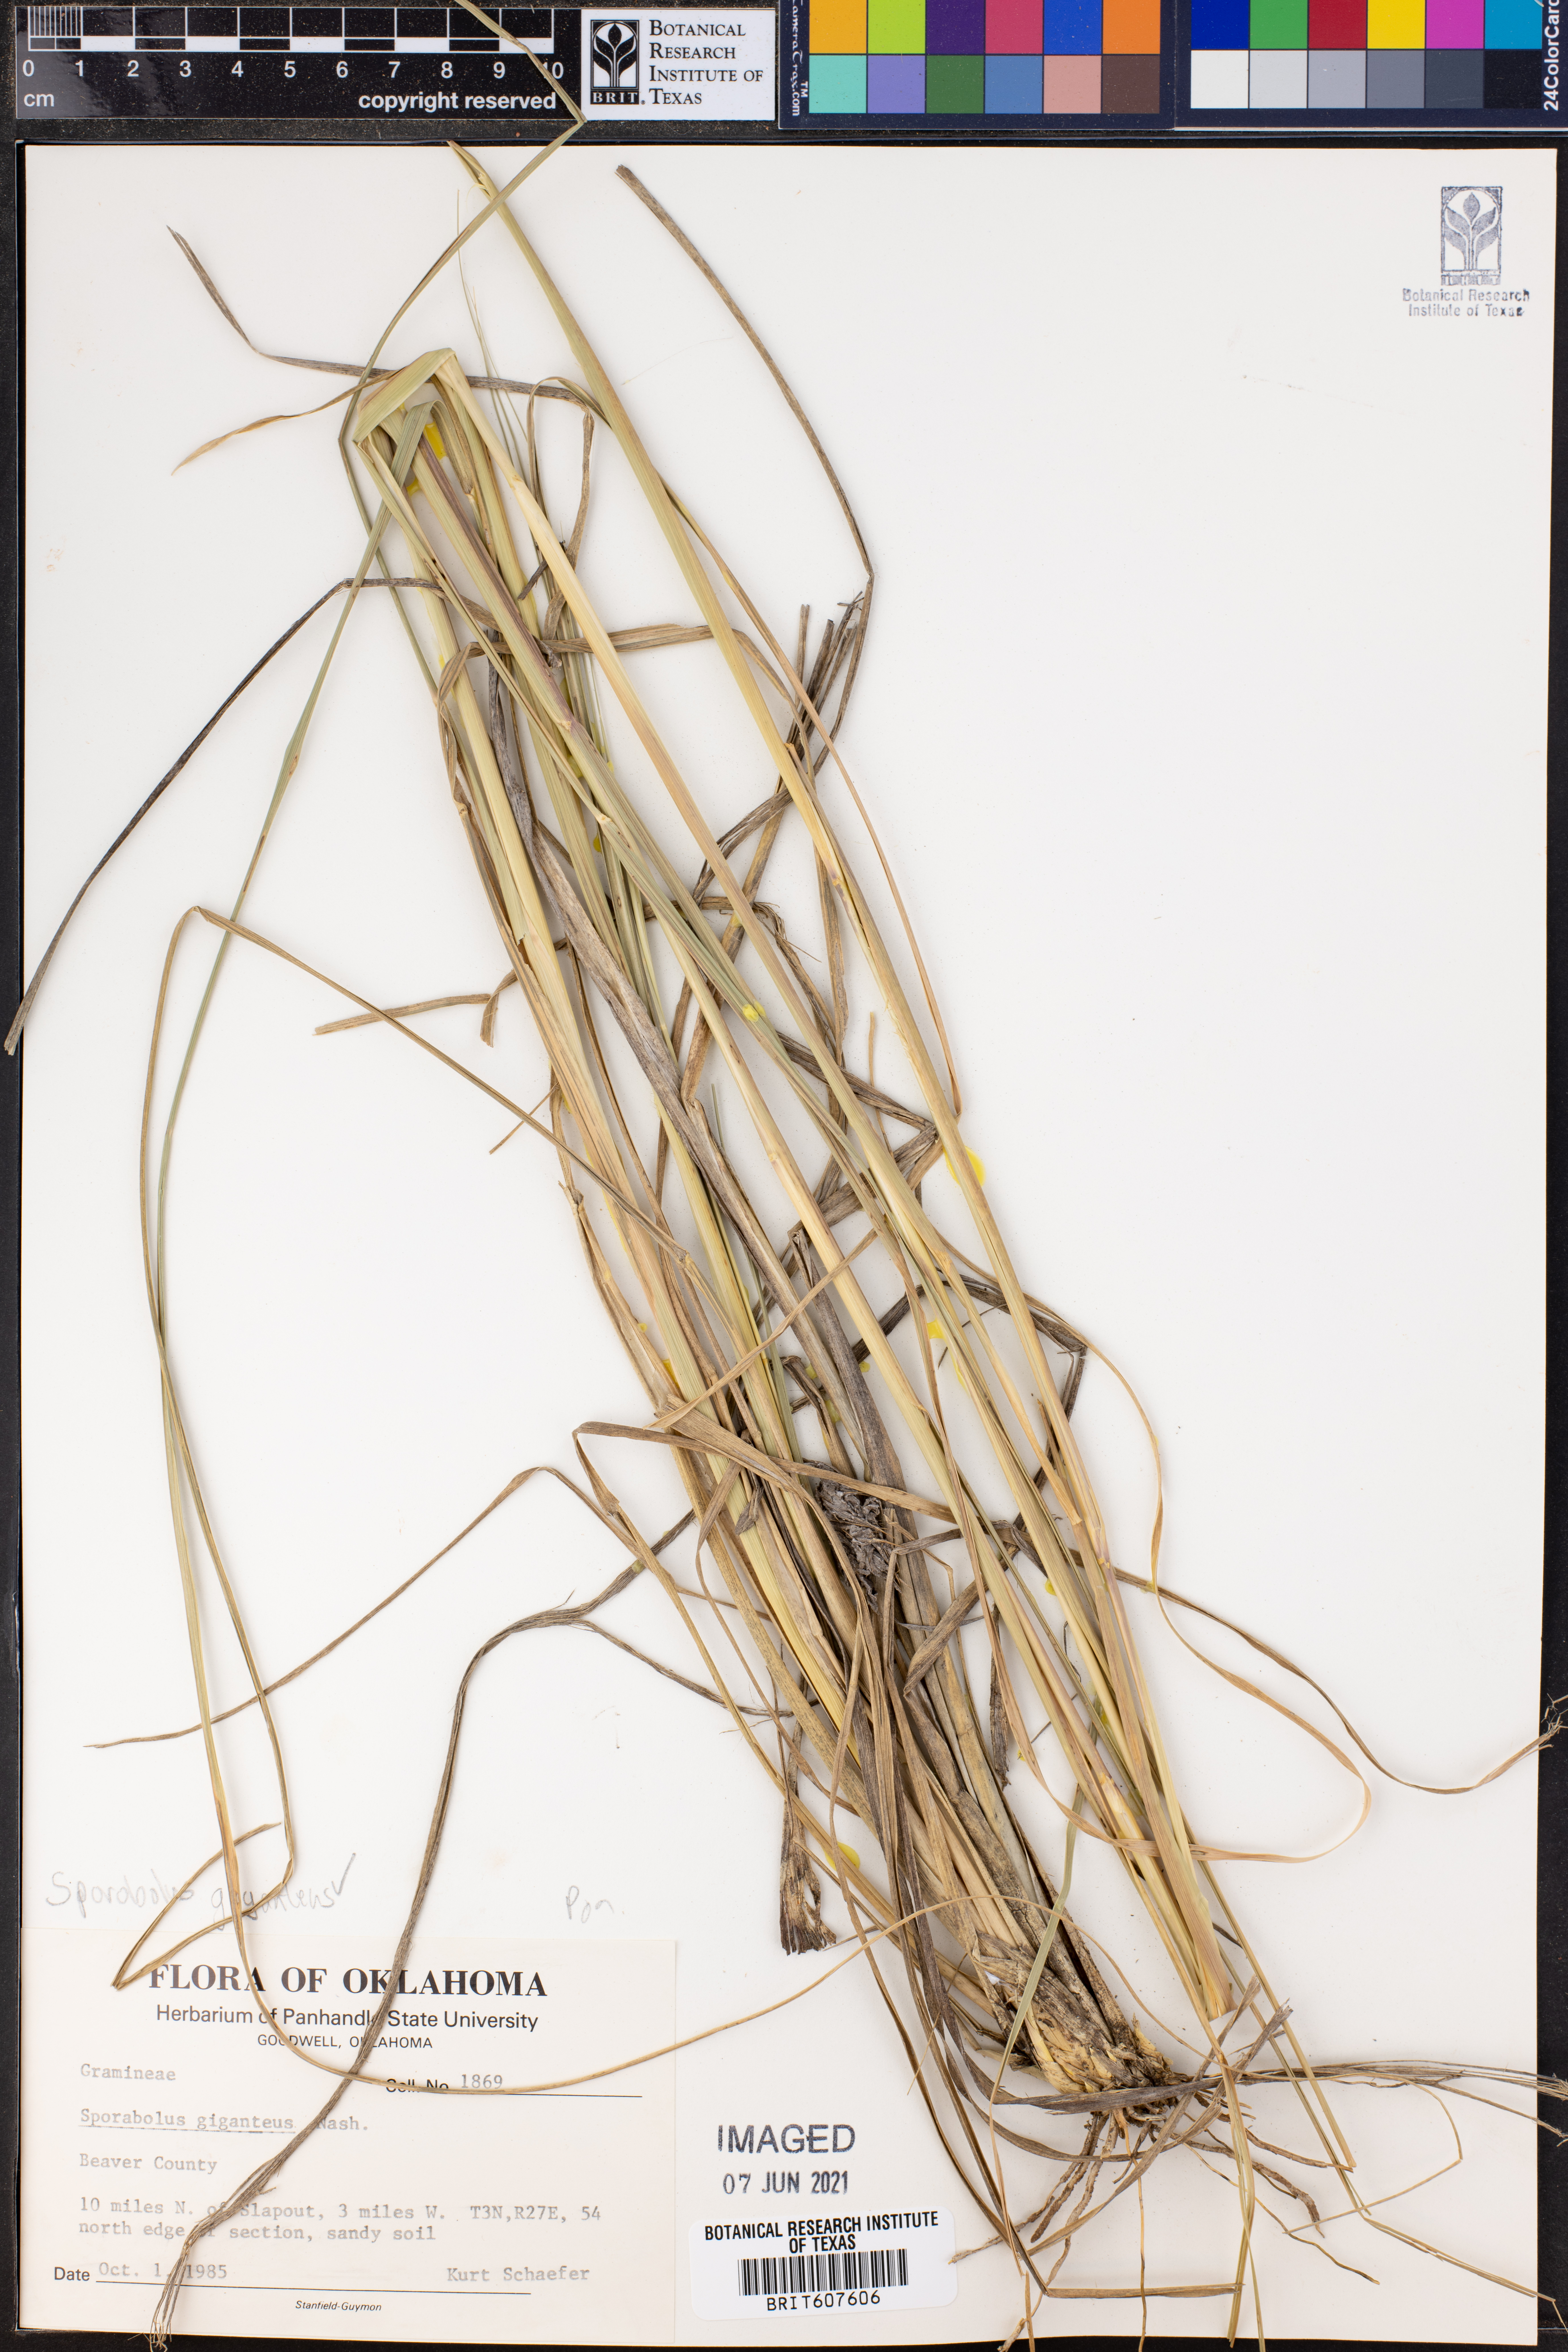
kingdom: Plantae
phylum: Tracheophyta
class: Liliopsida
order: Poales
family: Poaceae
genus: Sporobolus
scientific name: Sporobolus giganteus
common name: Giant dropseed
